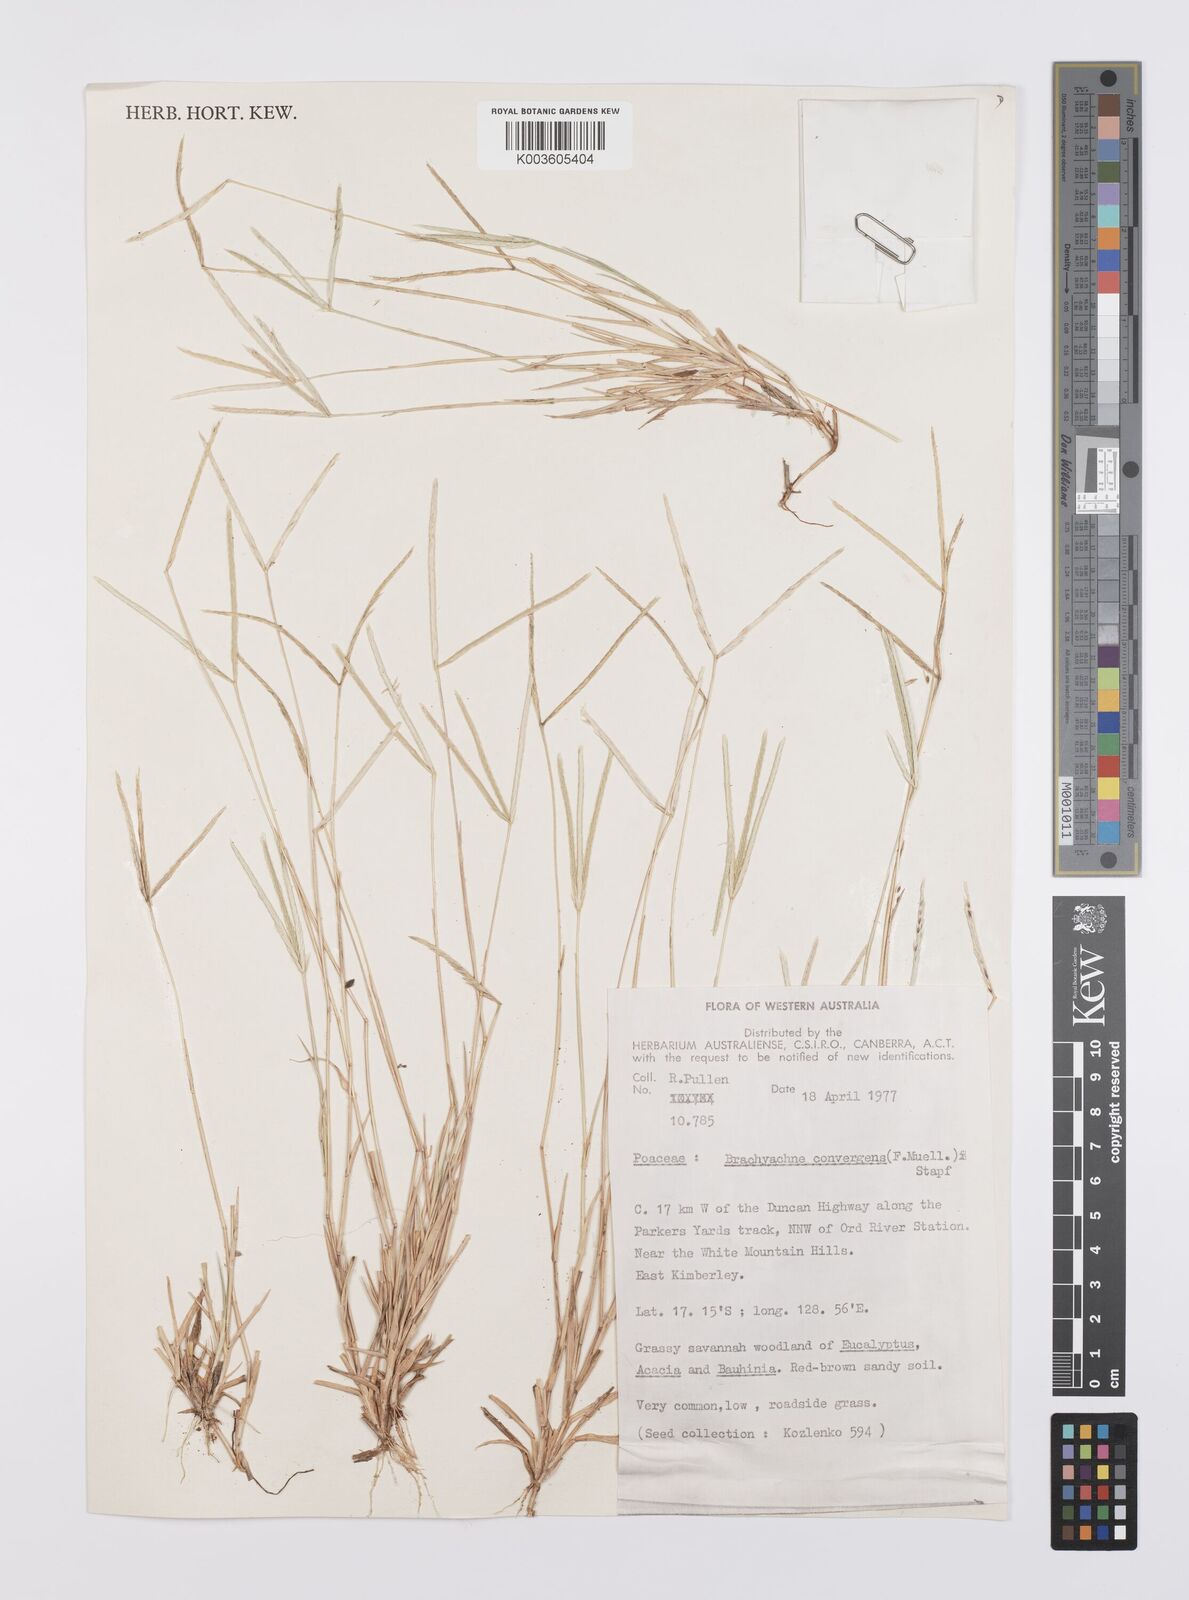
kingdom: Plantae
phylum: Tracheophyta
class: Liliopsida
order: Poales
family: Poaceae
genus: Cynodon
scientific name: Cynodon
